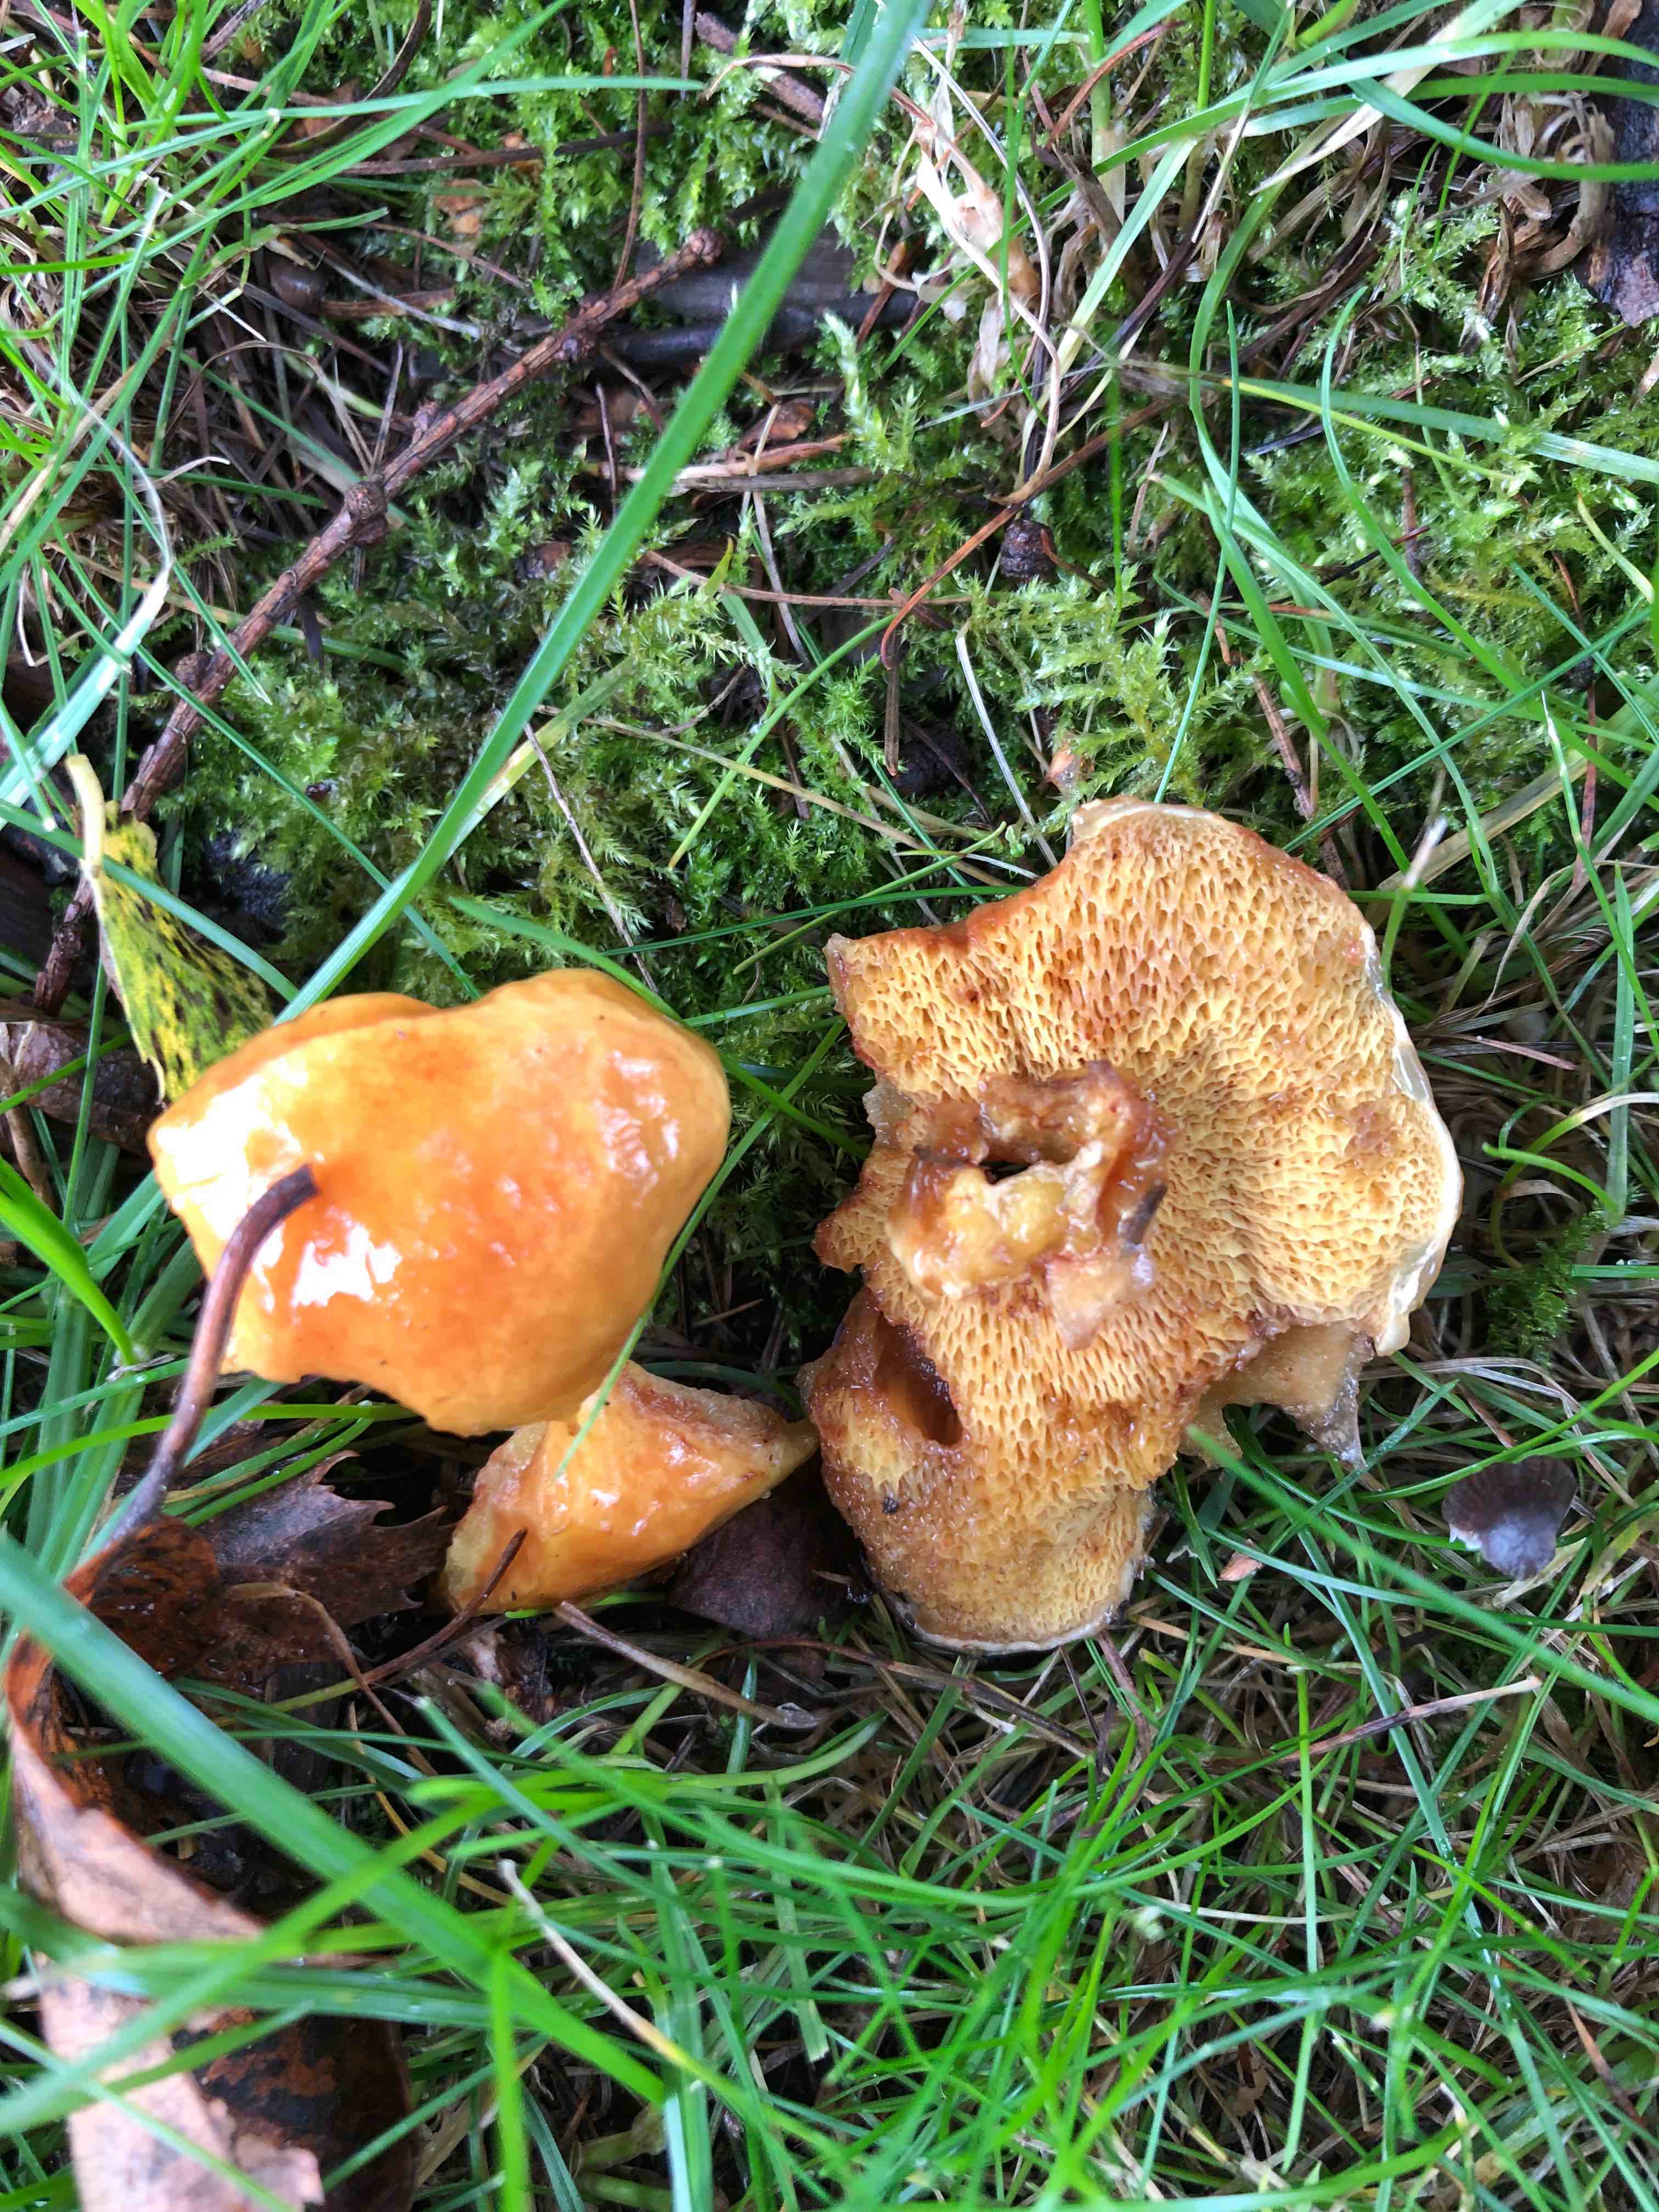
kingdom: Fungi
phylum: Basidiomycota
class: Agaricomycetes
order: Boletales
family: Suillaceae
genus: Suillus
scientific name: Suillus grevillei
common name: lærke-slimrørhat
